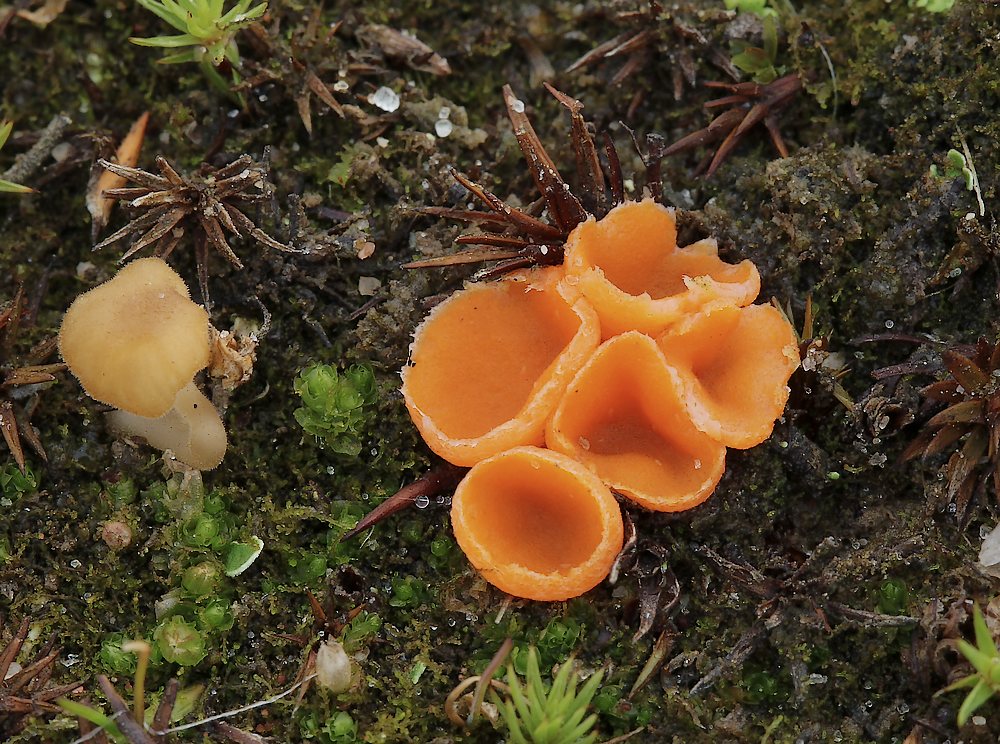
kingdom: Fungi
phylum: Ascomycota
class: Pezizomycetes
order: Pezizales
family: Pyronemataceae
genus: Neottiella
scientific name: Neottiella rutilans
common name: jomfruhår-mosbæger
